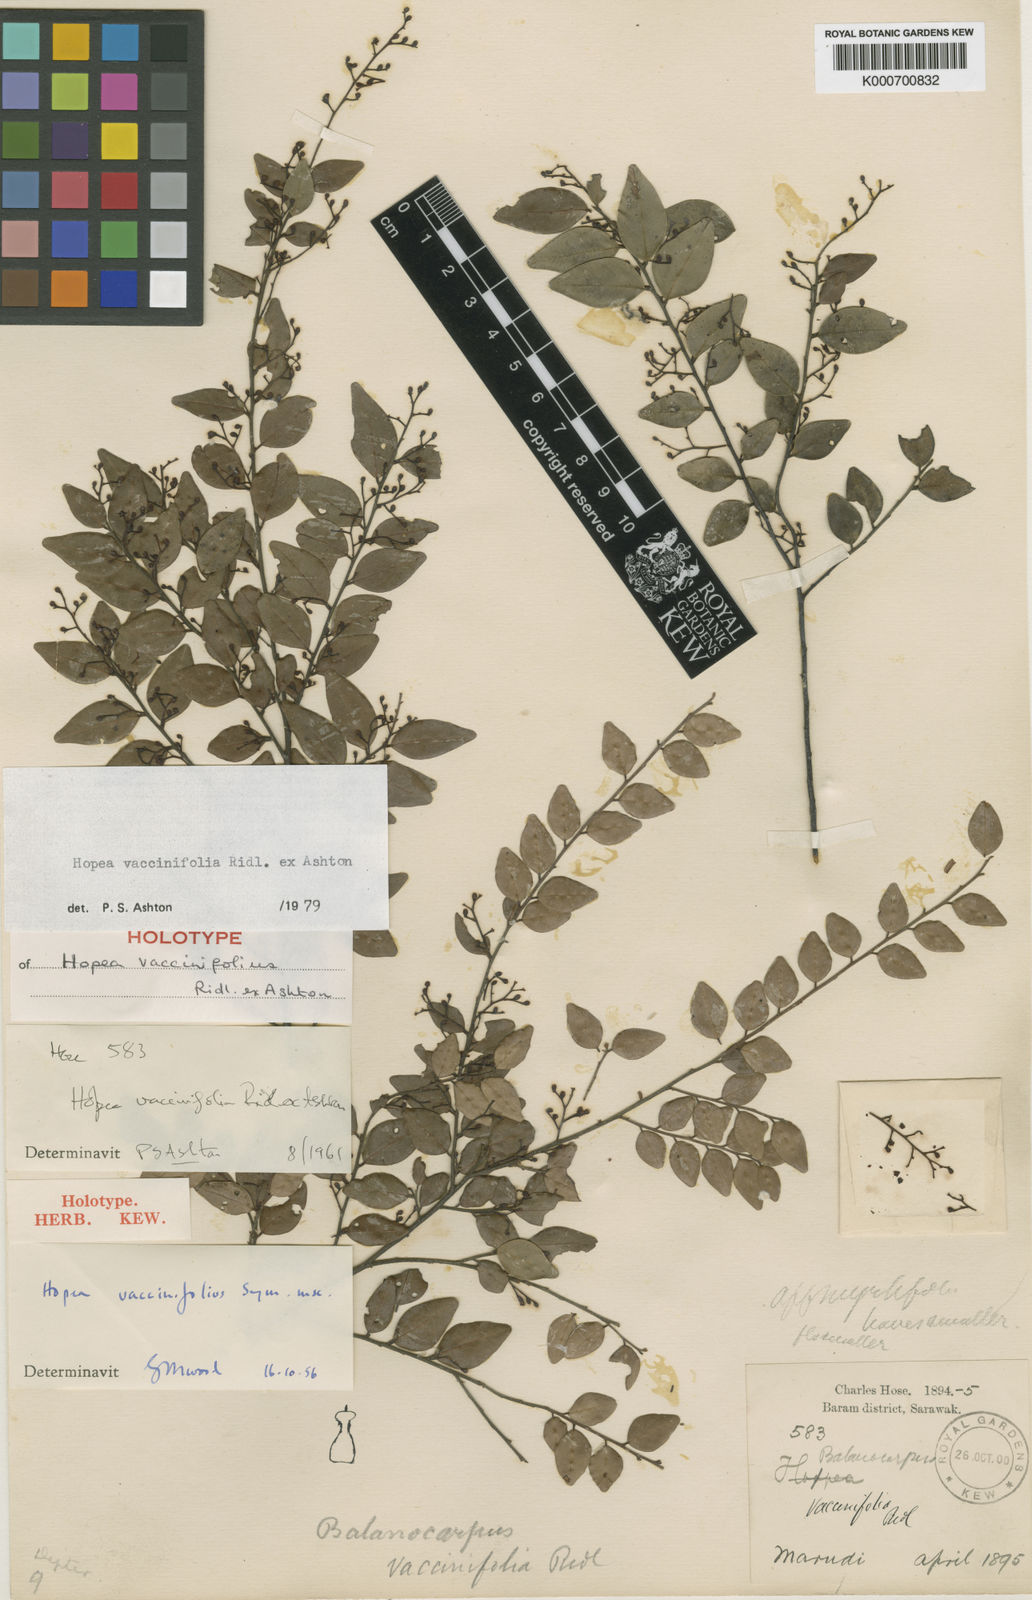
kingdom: Plantae
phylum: Tracheophyta
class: Magnoliopsida
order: Malvales
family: Dipterocarpaceae
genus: Hopea
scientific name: Hopea vacciniifolia
